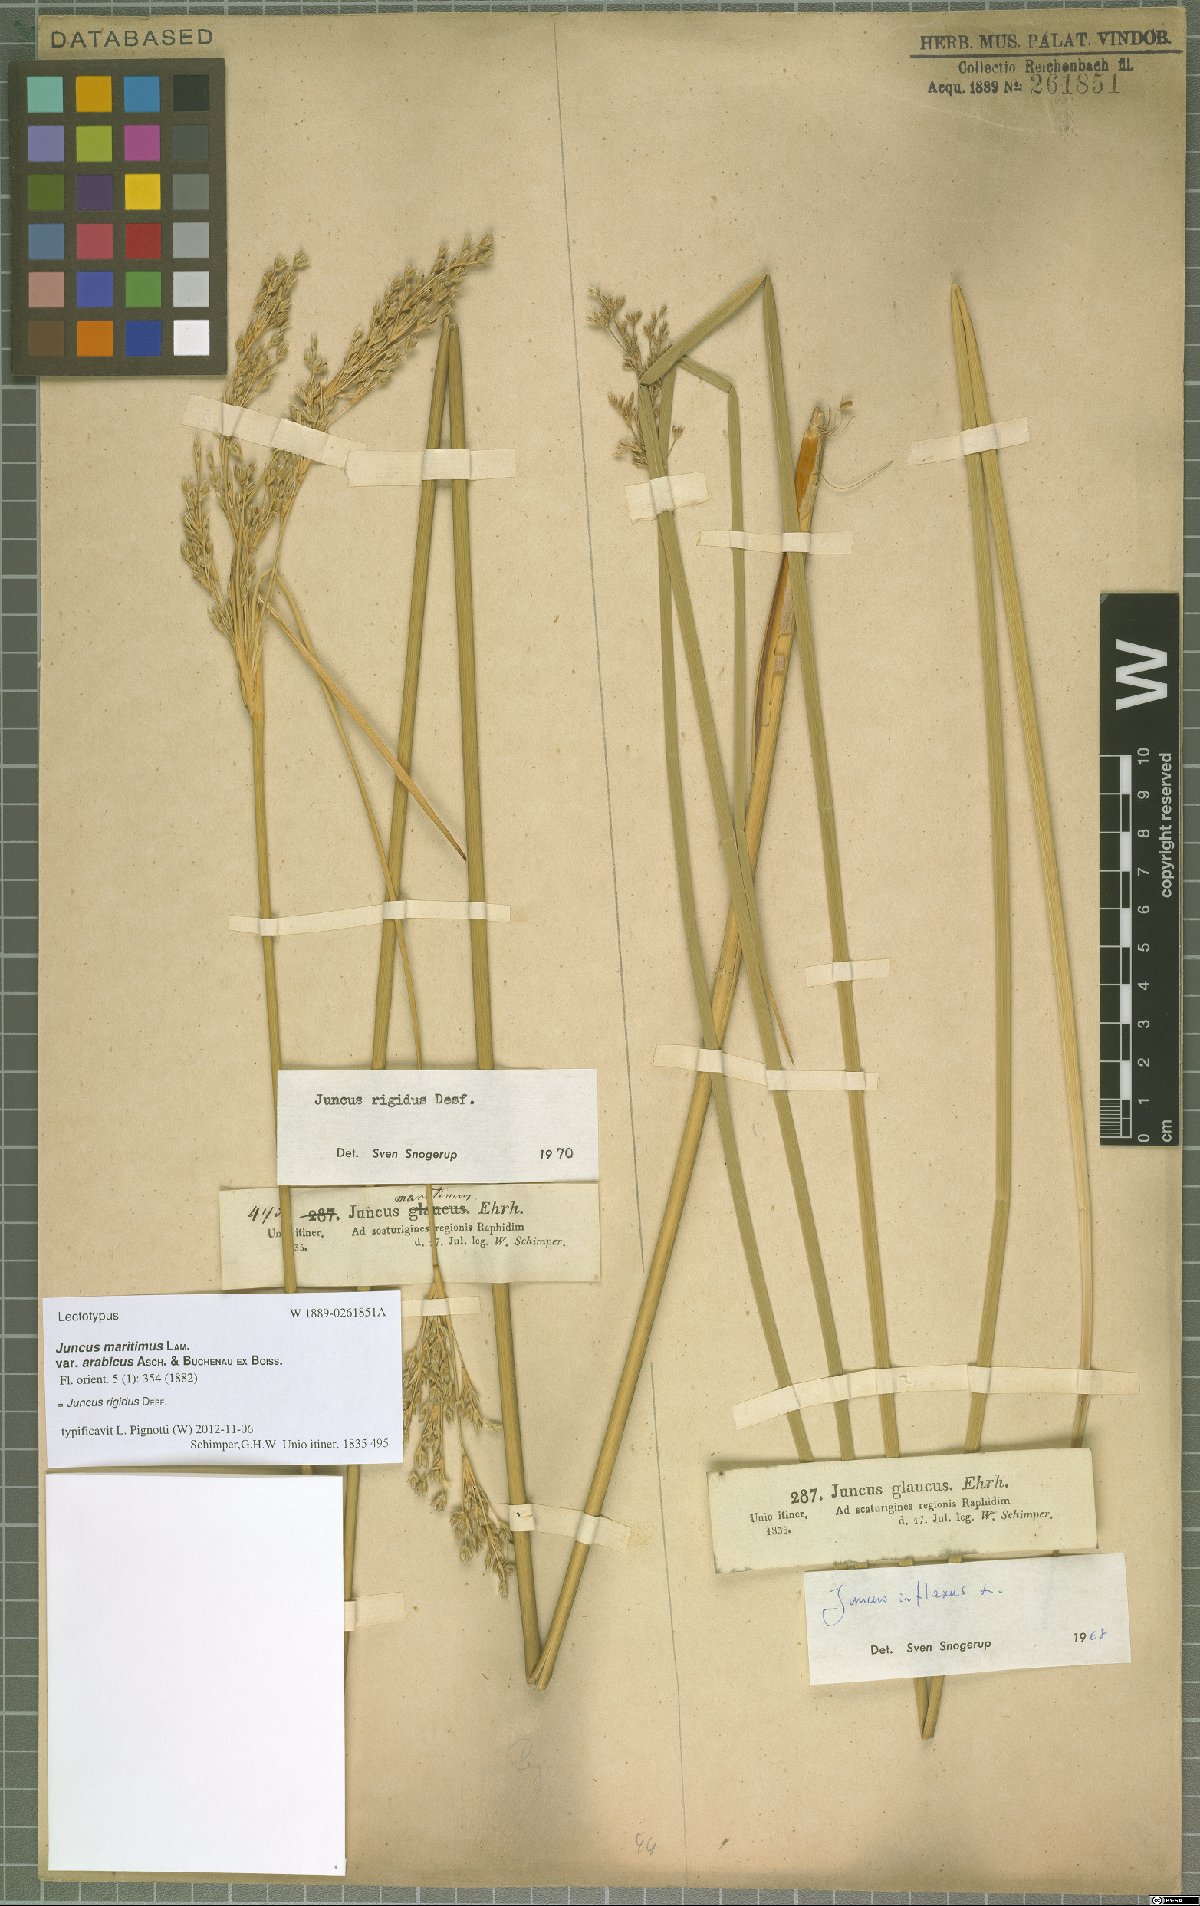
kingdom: Plantae
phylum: Tracheophyta
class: Liliopsida
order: Poales
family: Juncaceae
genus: Juncus
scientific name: Juncus inflexus
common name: Hard rush
